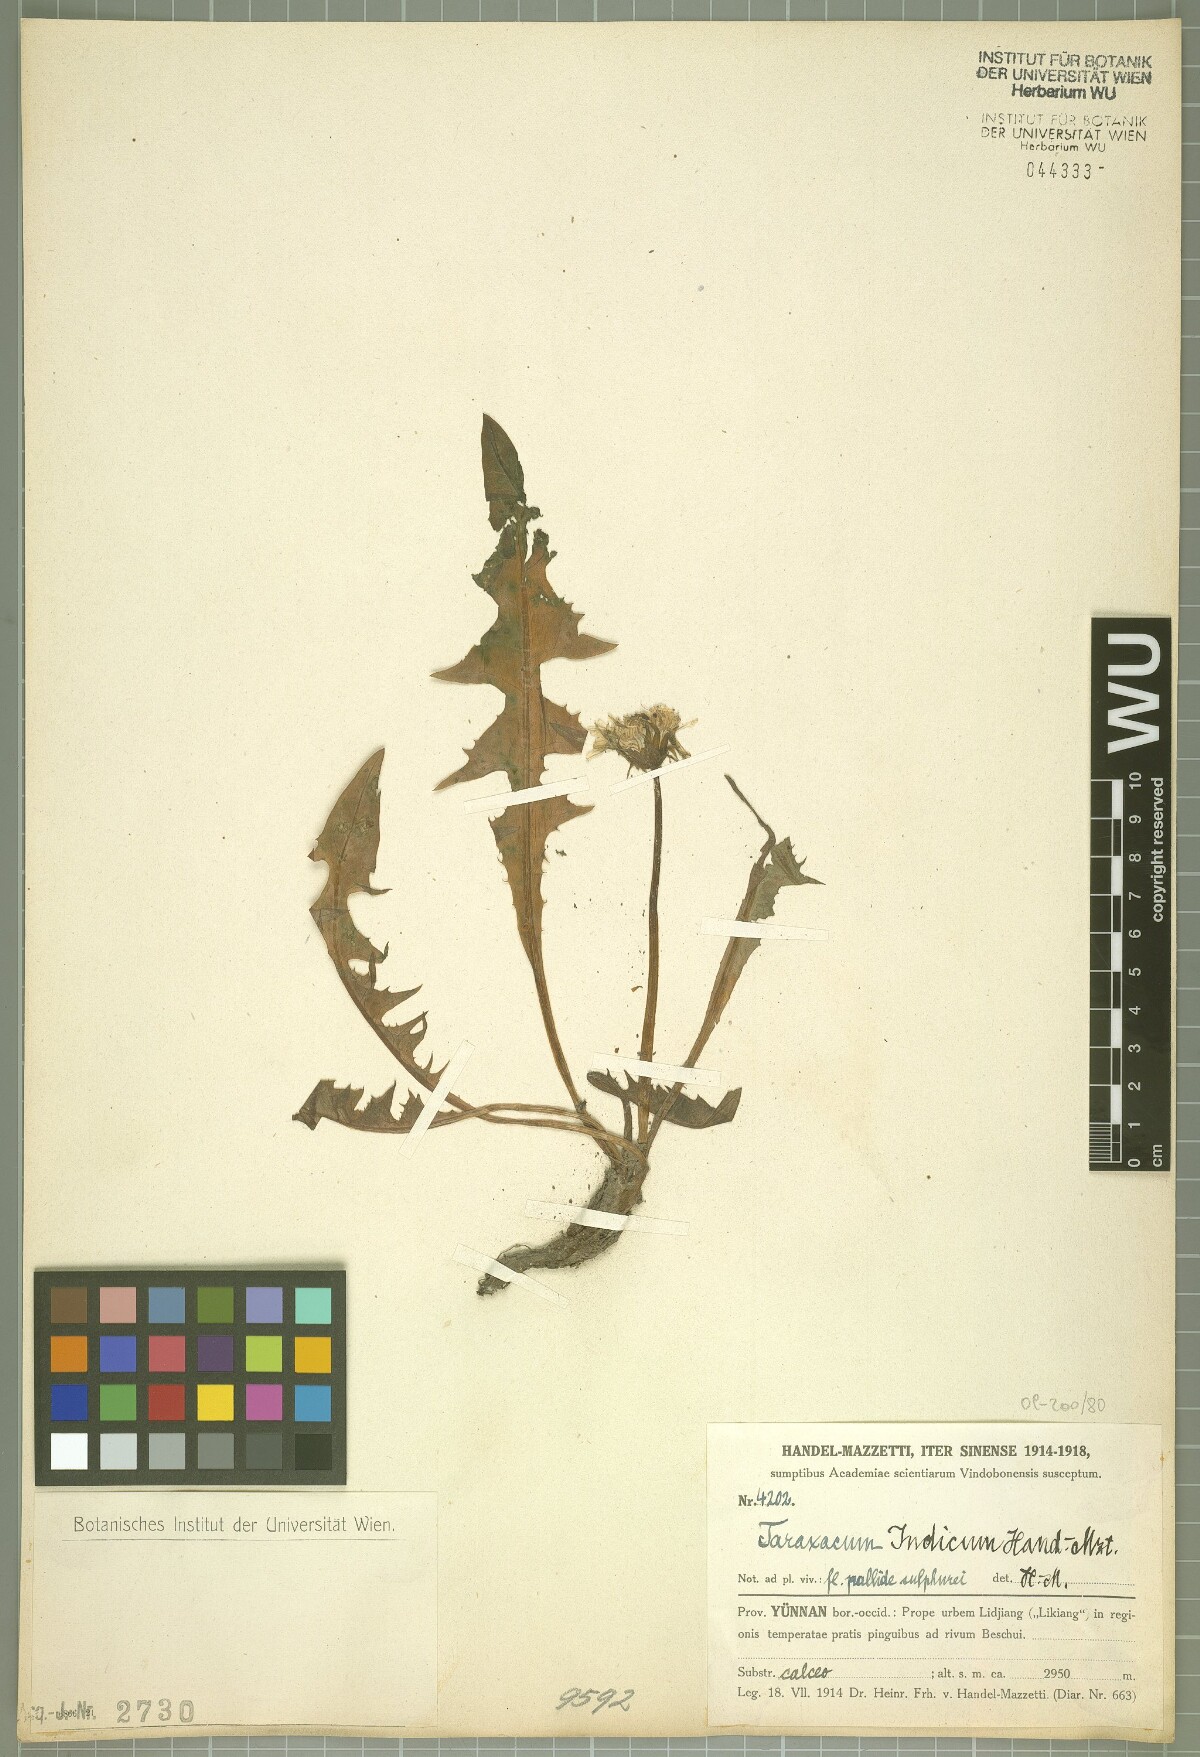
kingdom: Plantae
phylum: Tracheophyta
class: Magnoliopsida
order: Asterales
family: Asteraceae
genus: Taraxacum
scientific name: Taraxacum indicum
